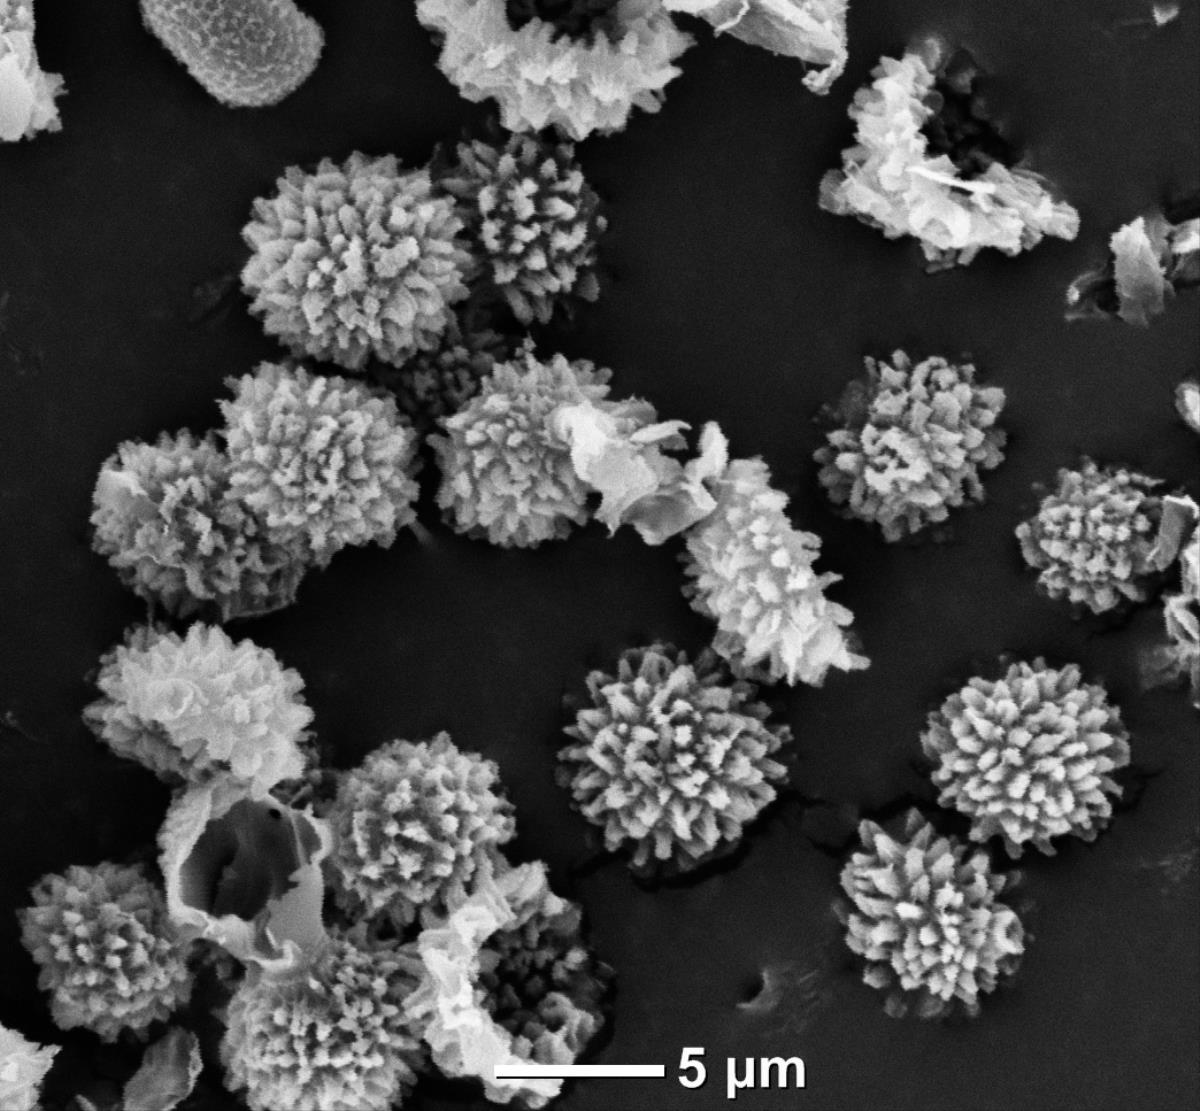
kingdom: Fungi
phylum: Basidiomycota
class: Agaricomycetes
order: Boletales
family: Sclerodermataceae
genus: Pisolithus
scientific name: Pisolithus microcarpus
